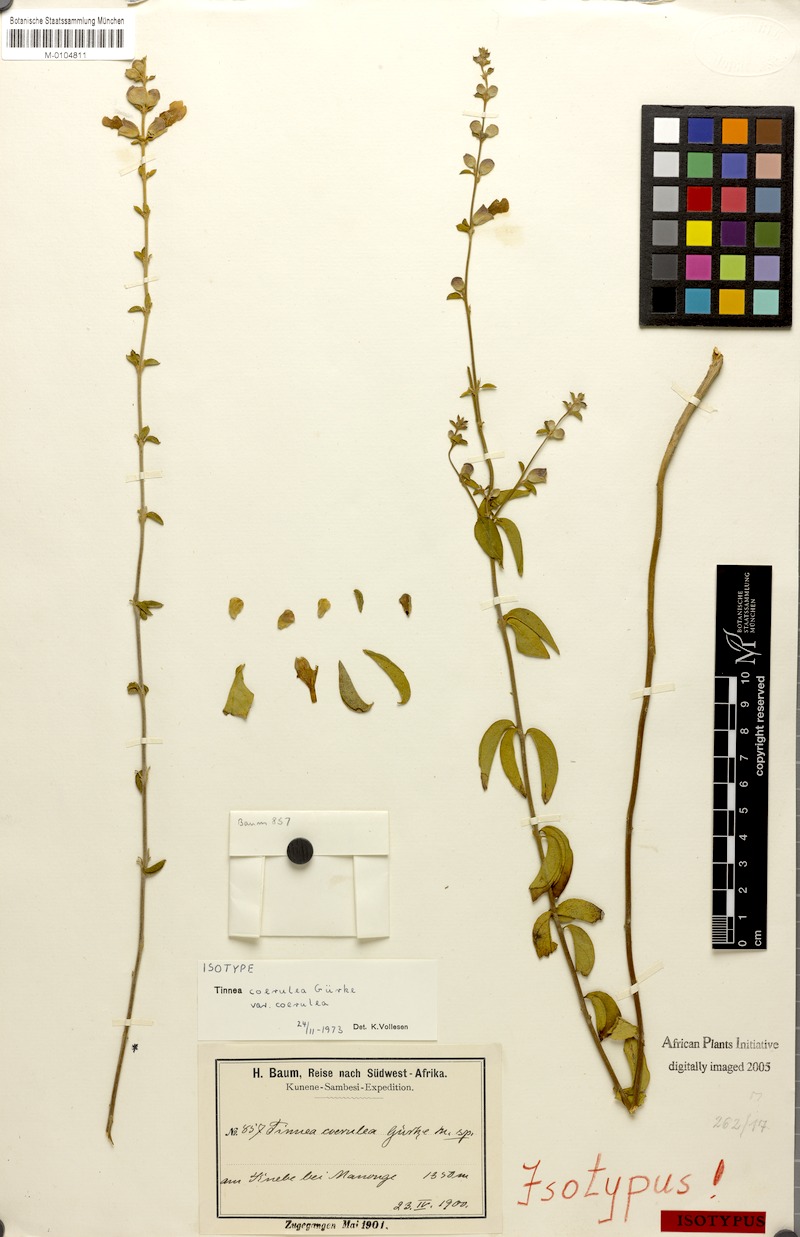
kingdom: Plantae
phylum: Tracheophyta
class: Magnoliopsida
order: Lamiales
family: Lamiaceae
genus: Tinnea
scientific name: Tinnea coerulea
